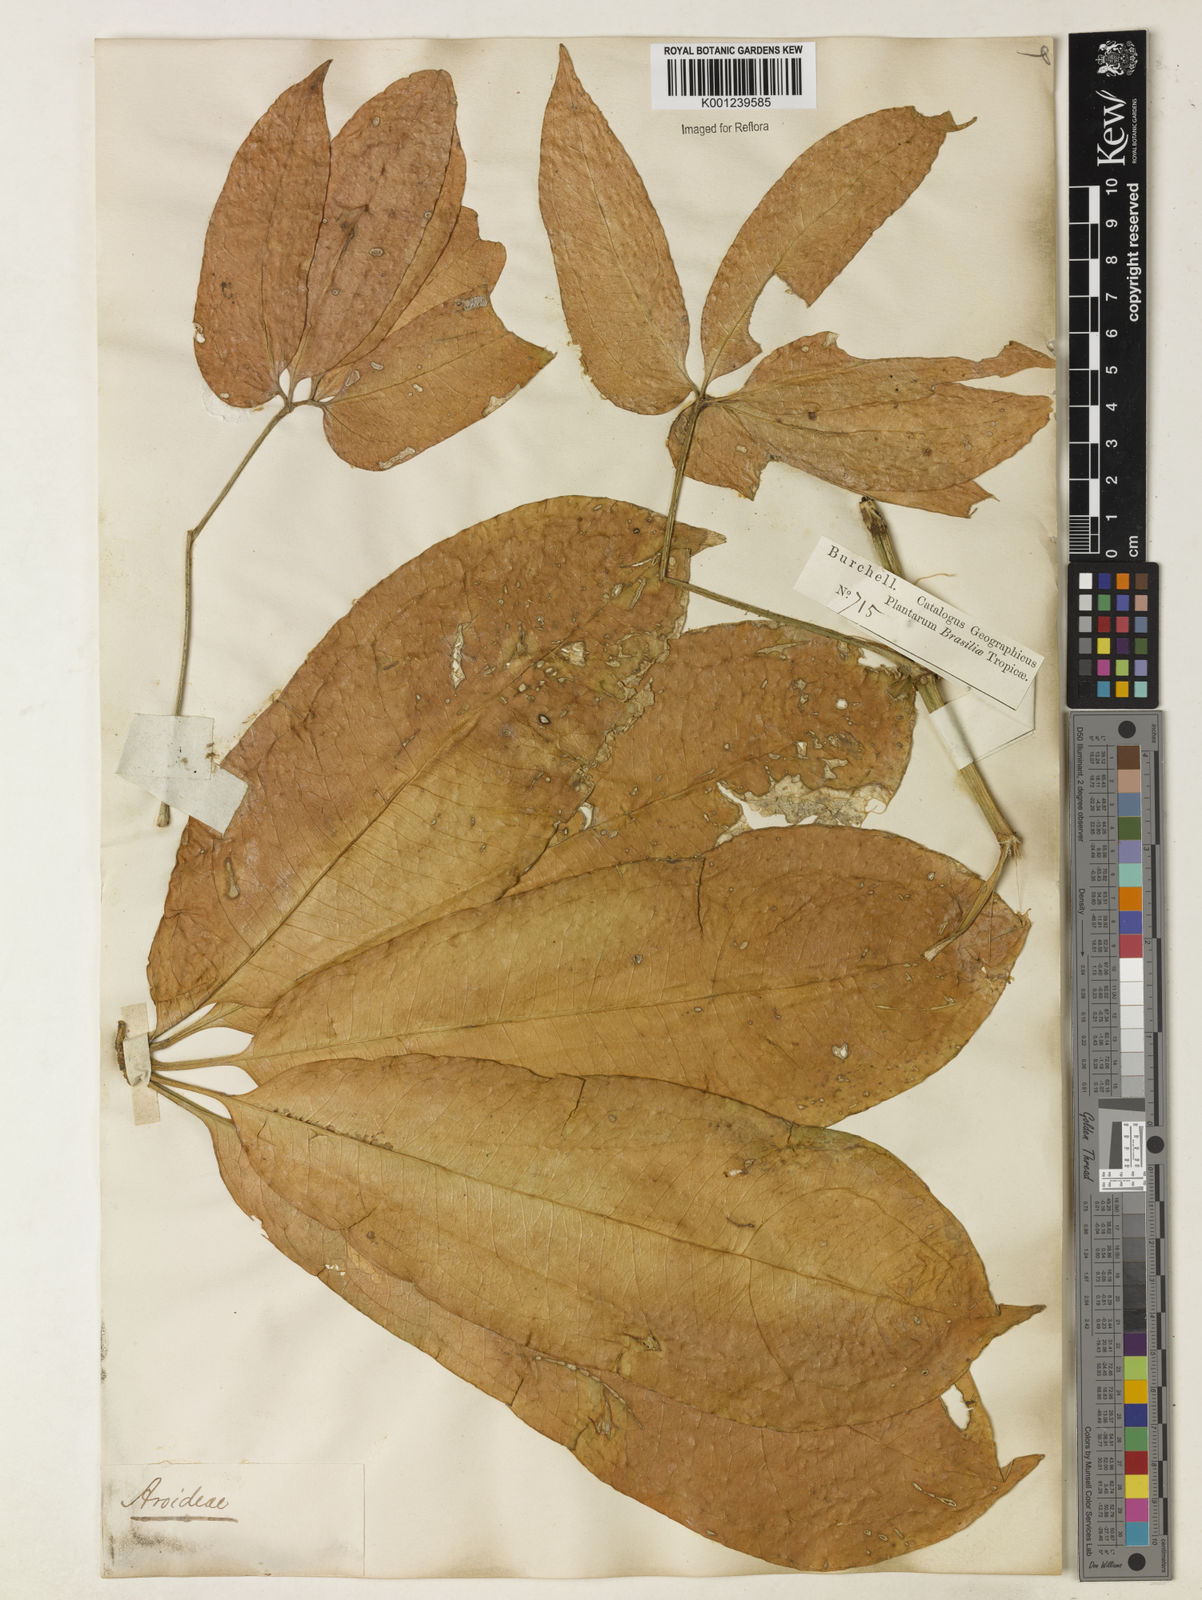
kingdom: Plantae
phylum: Tracheophyta
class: Liliopsida
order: Alismatales
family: Araceae
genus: Anthurium
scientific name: Anthurium pentaphyllum
